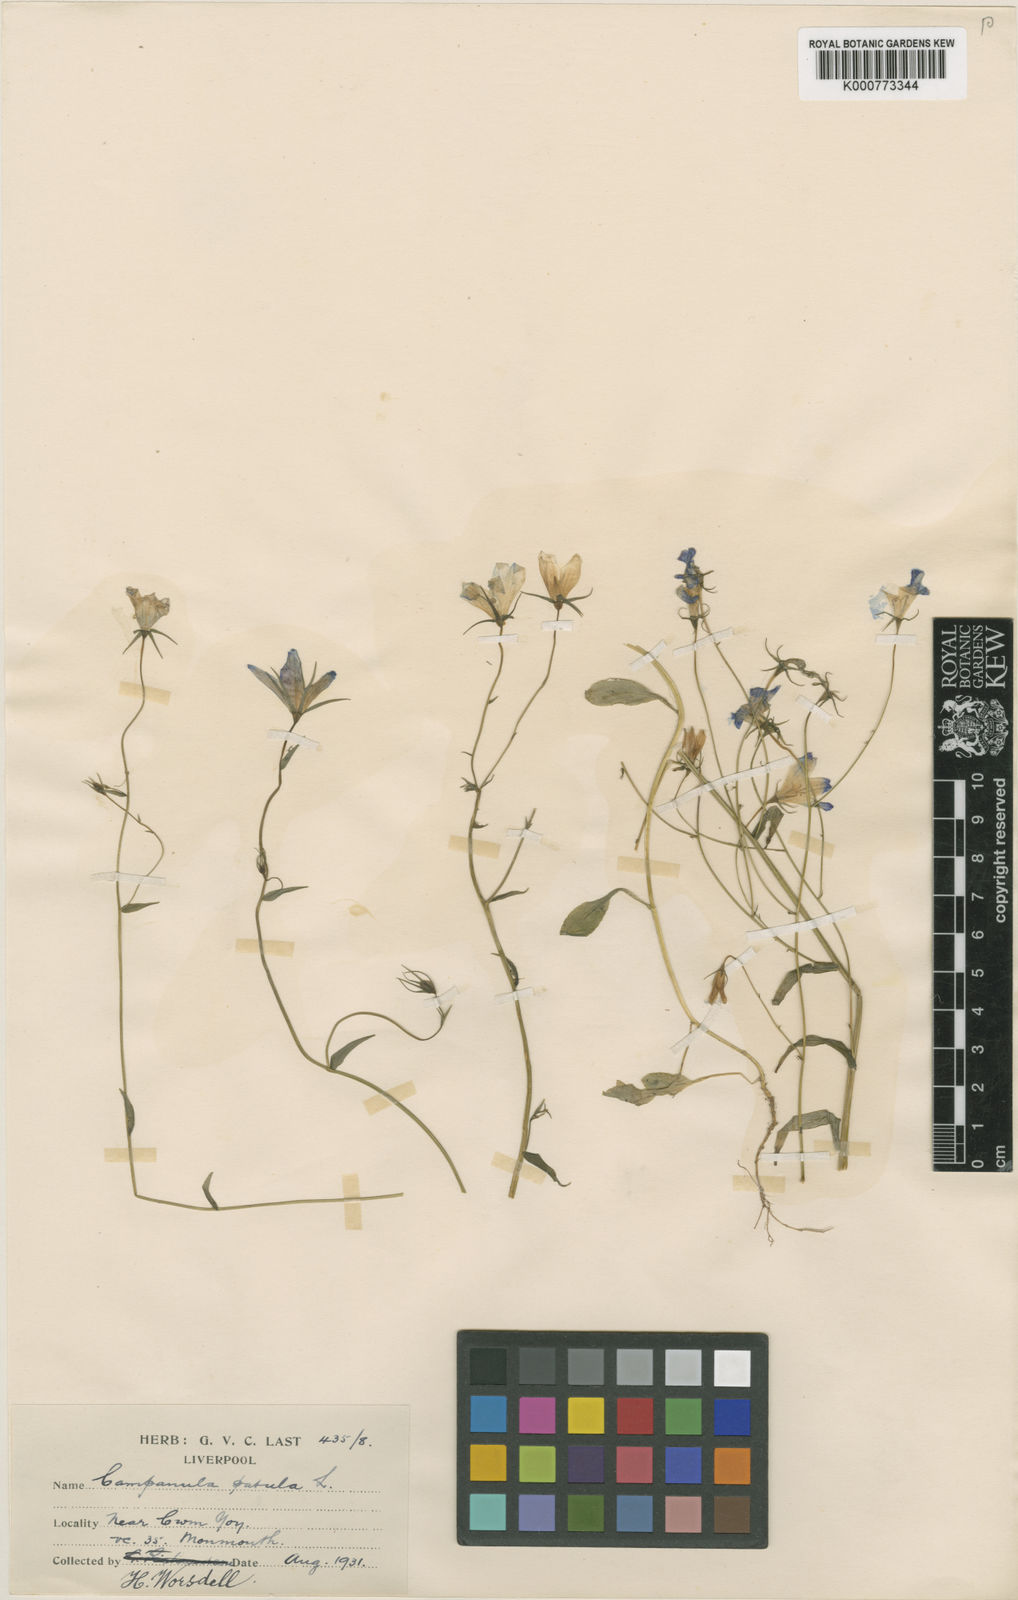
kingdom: Plantae
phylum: Tracheophyta
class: Magnoliopsida
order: Asterales
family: Campanulaceae
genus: Campanula
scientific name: Campanula patula
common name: Spreading bellflower
